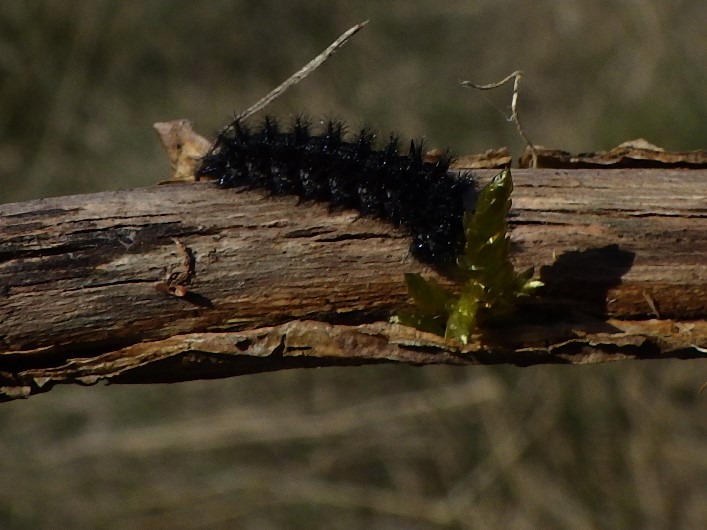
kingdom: Animalia
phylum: Arthropoda
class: Insecta
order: Lepidoptera
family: Nymphalidae
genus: Euphydryas
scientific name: Euphydryas aurinia
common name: Hedepletvinge
